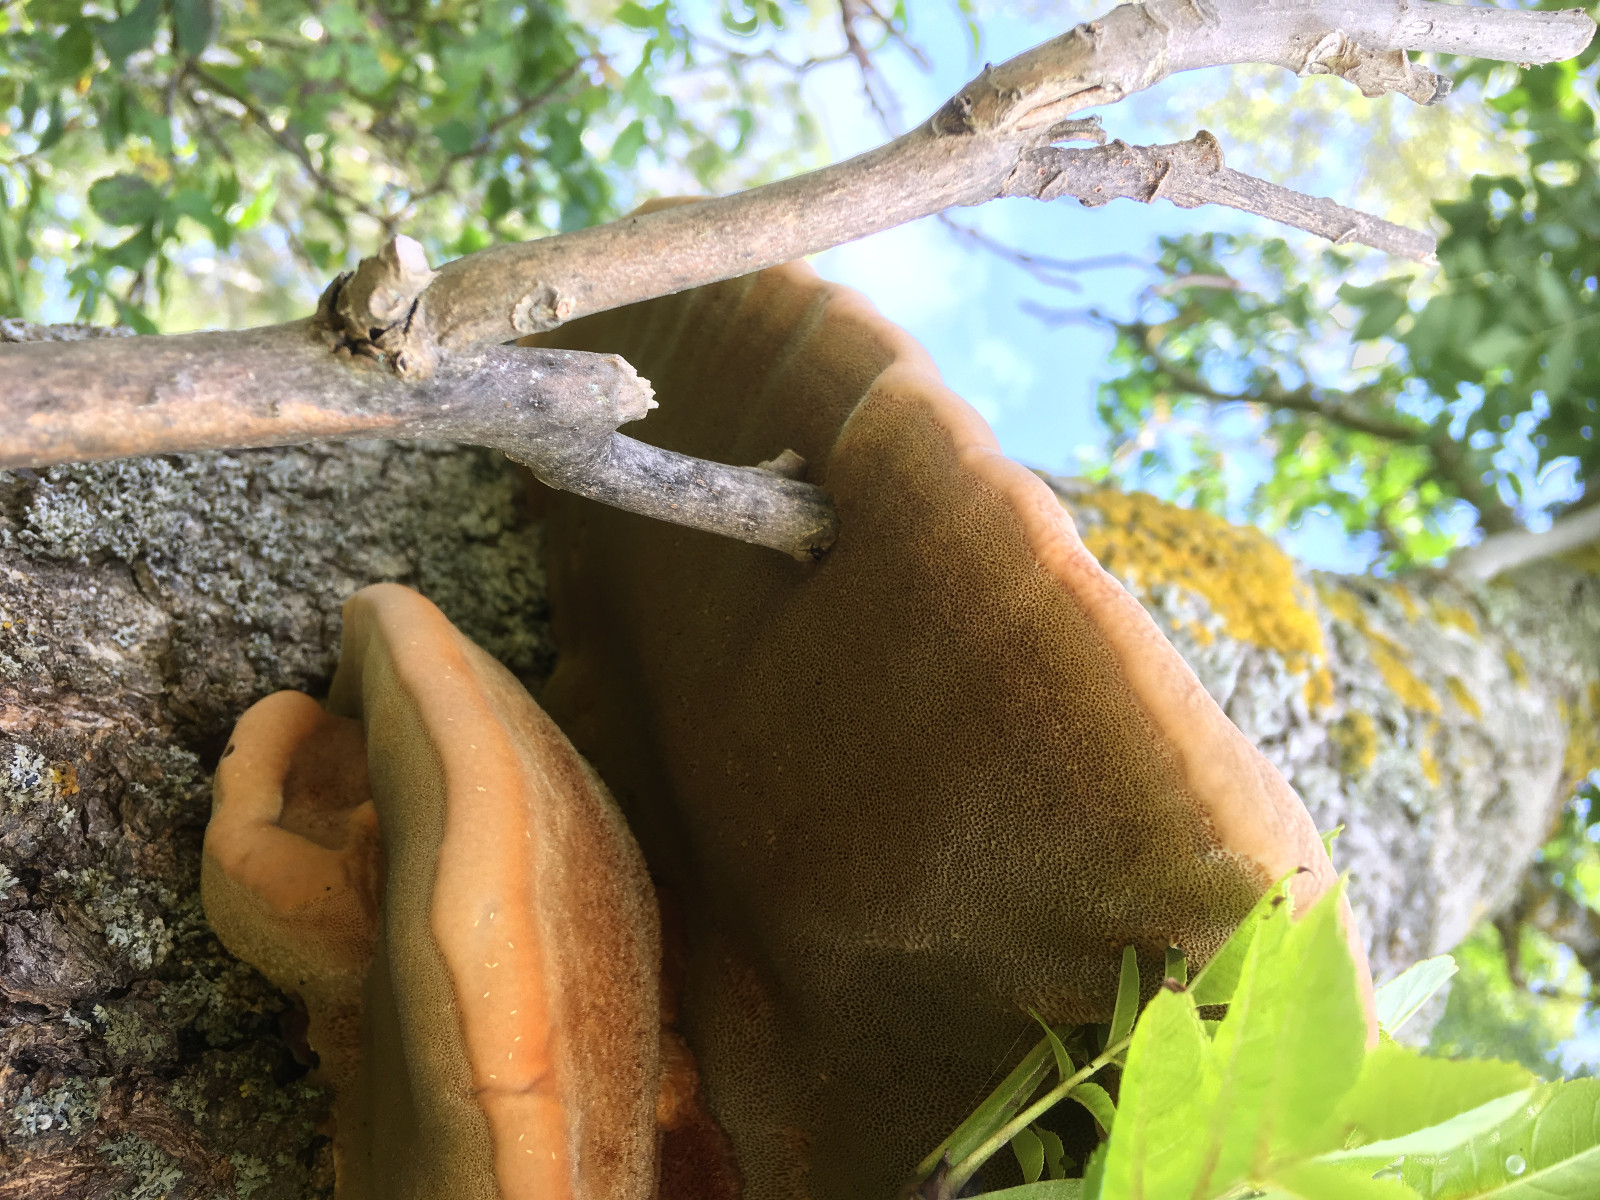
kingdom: Fungi
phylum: Basidiomycota
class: Agaricomycetes
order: Hymenochaetales
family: Hymenochaetaceae
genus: Inonotus
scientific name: Inonotus hispidus
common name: børstehåret spejlporesvamp
